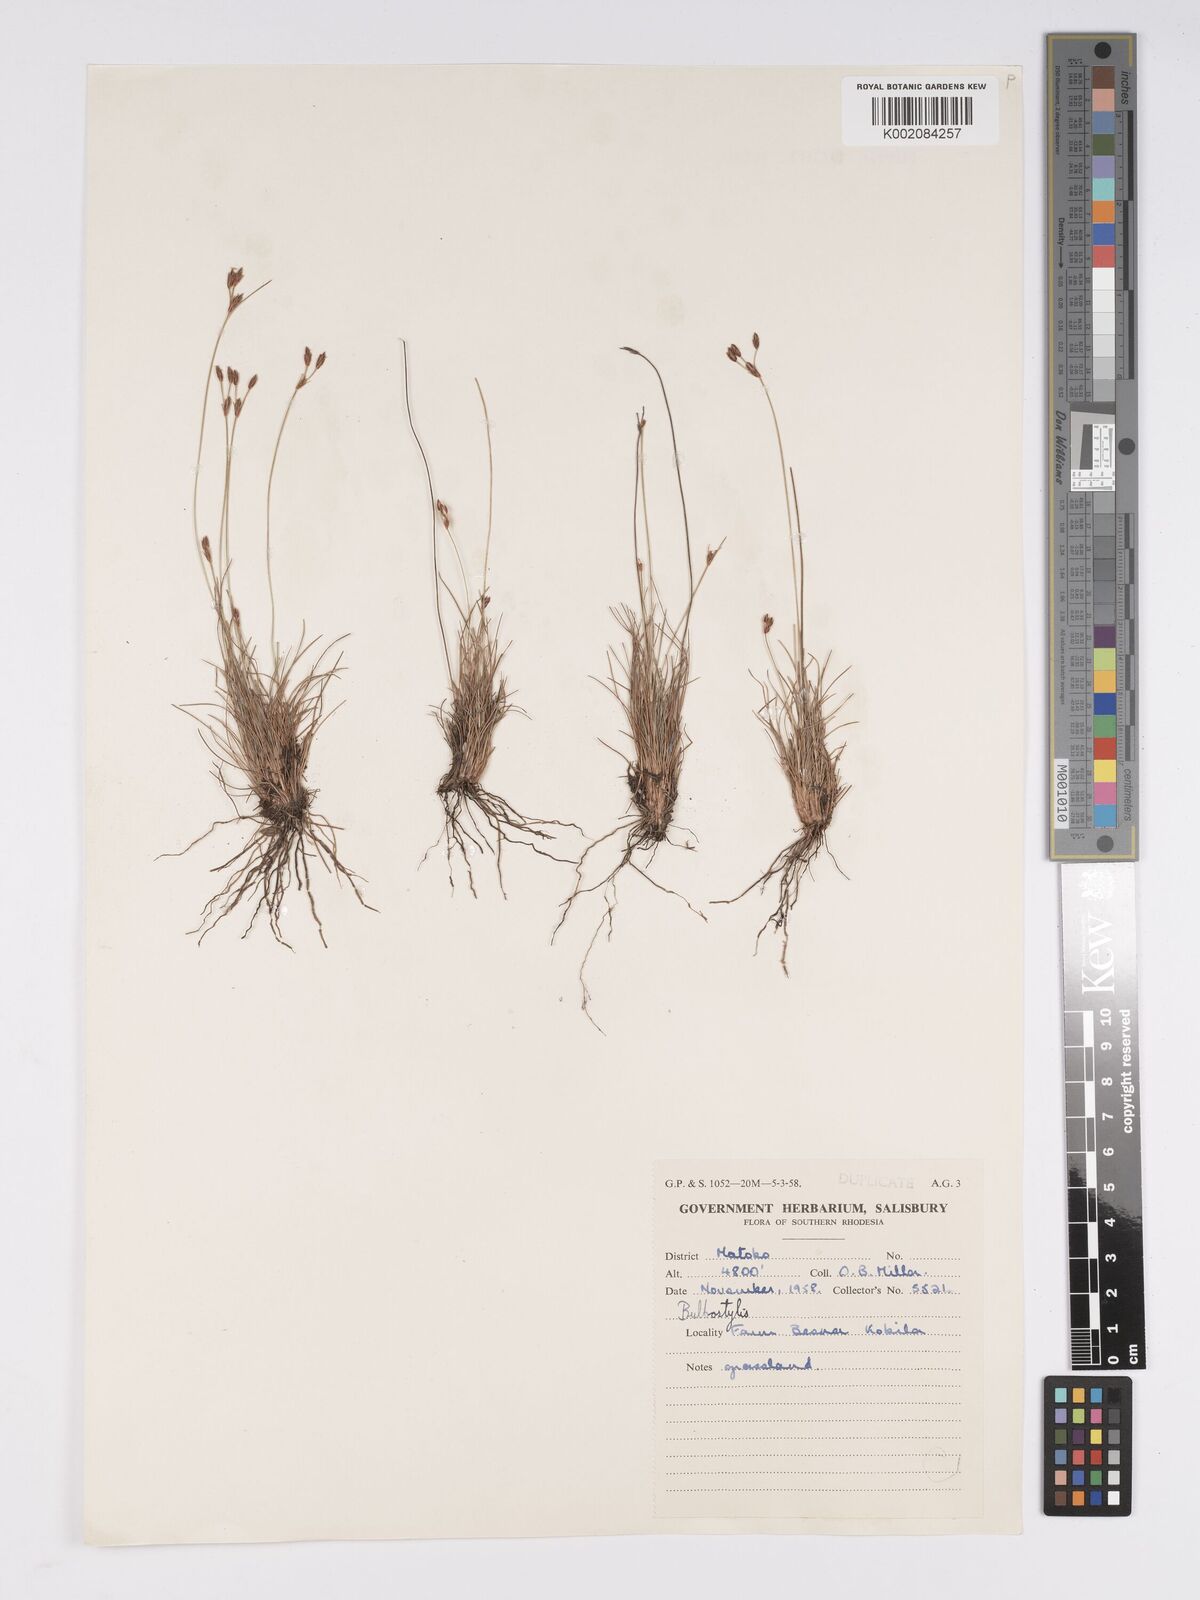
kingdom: Plantae
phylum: Tracheophyta
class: Liliopsida
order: Poales
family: Cyperaceae
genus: Bulbostylis
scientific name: Bulbostylis
